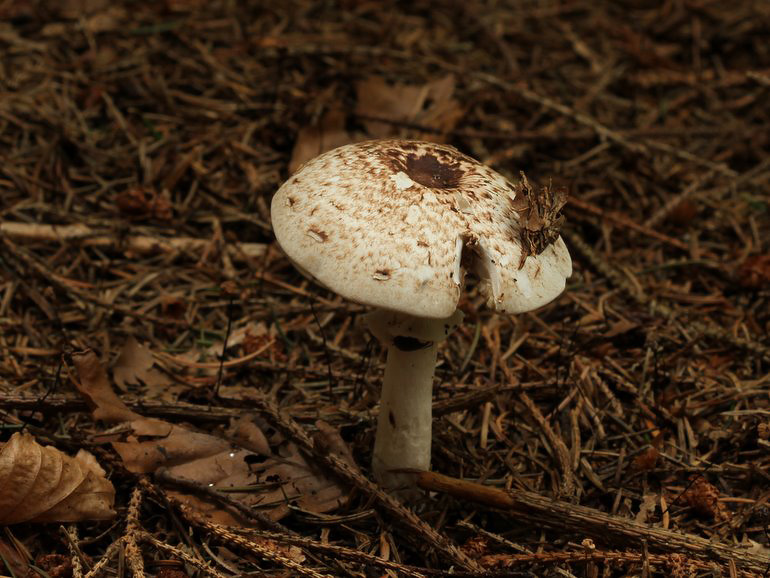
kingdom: Fungi
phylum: Basidiomycota
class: Agaricomycetes
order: Agaricales
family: Agaricaceae
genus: Agaricus
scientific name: Agaricus impudicus
